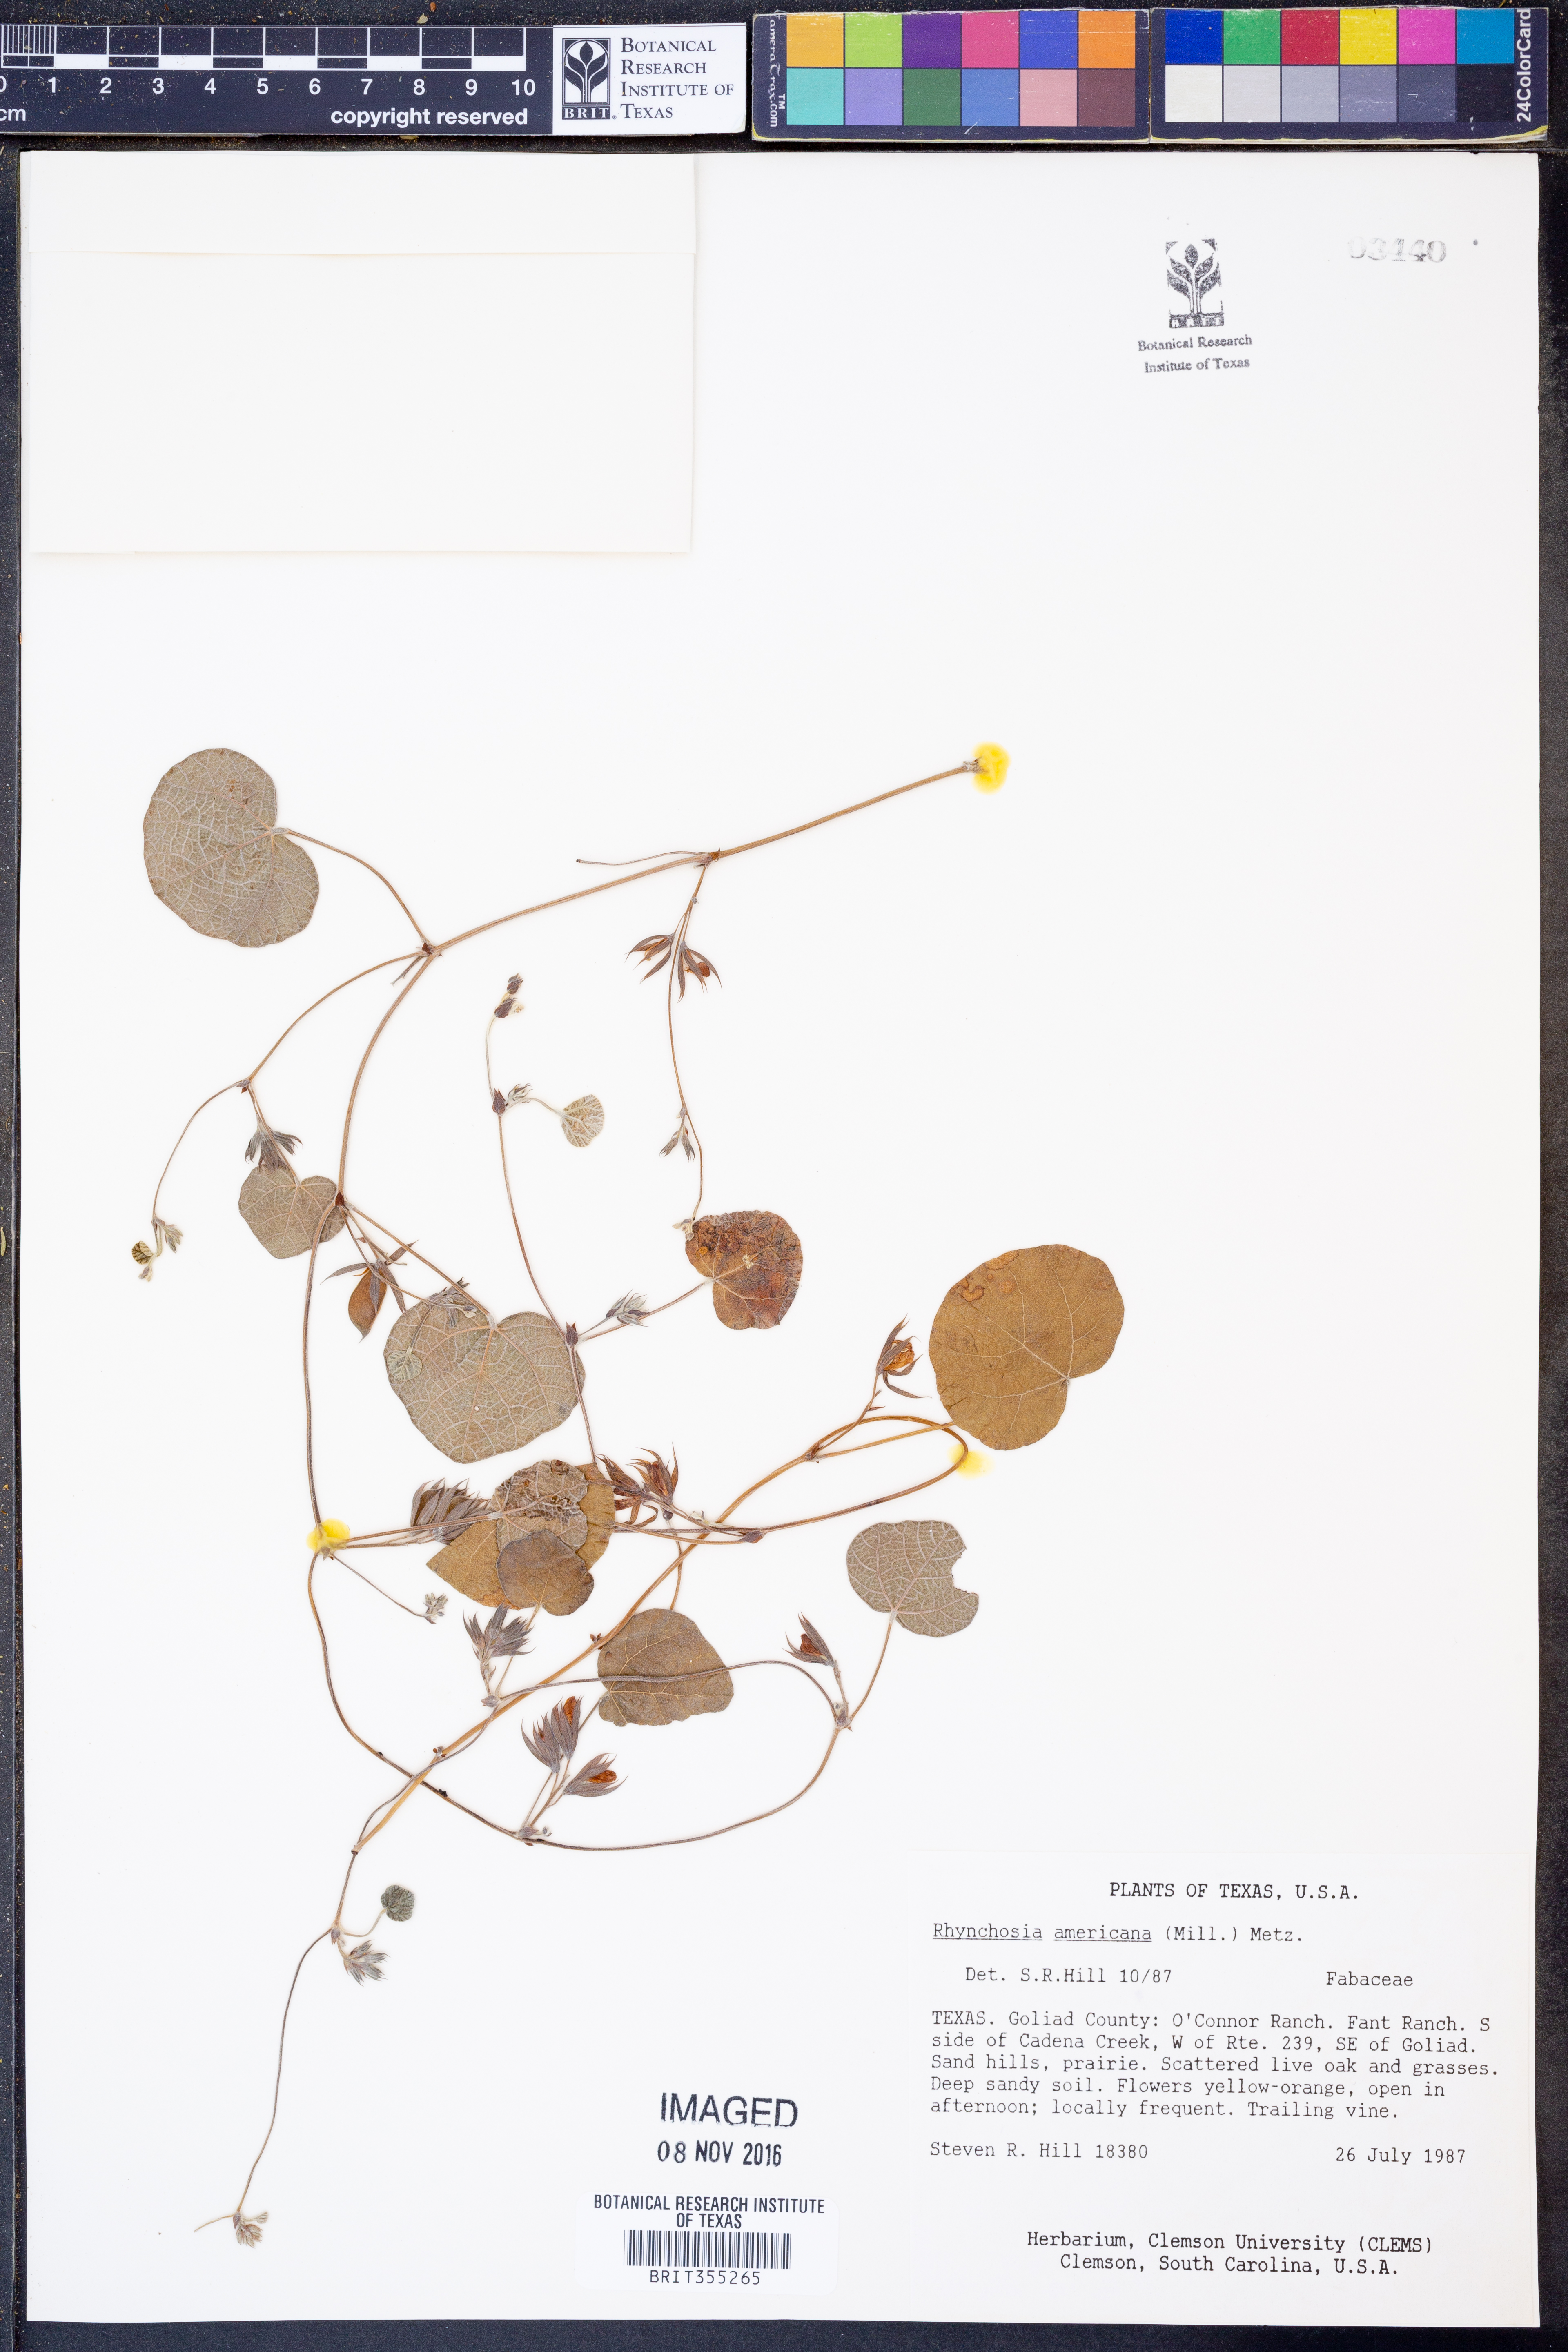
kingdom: Plantae
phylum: Tracheophyta
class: Magnoliopsida
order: Fabales
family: Fabaceae
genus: Rhynchosia
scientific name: Rhynchosia americana
